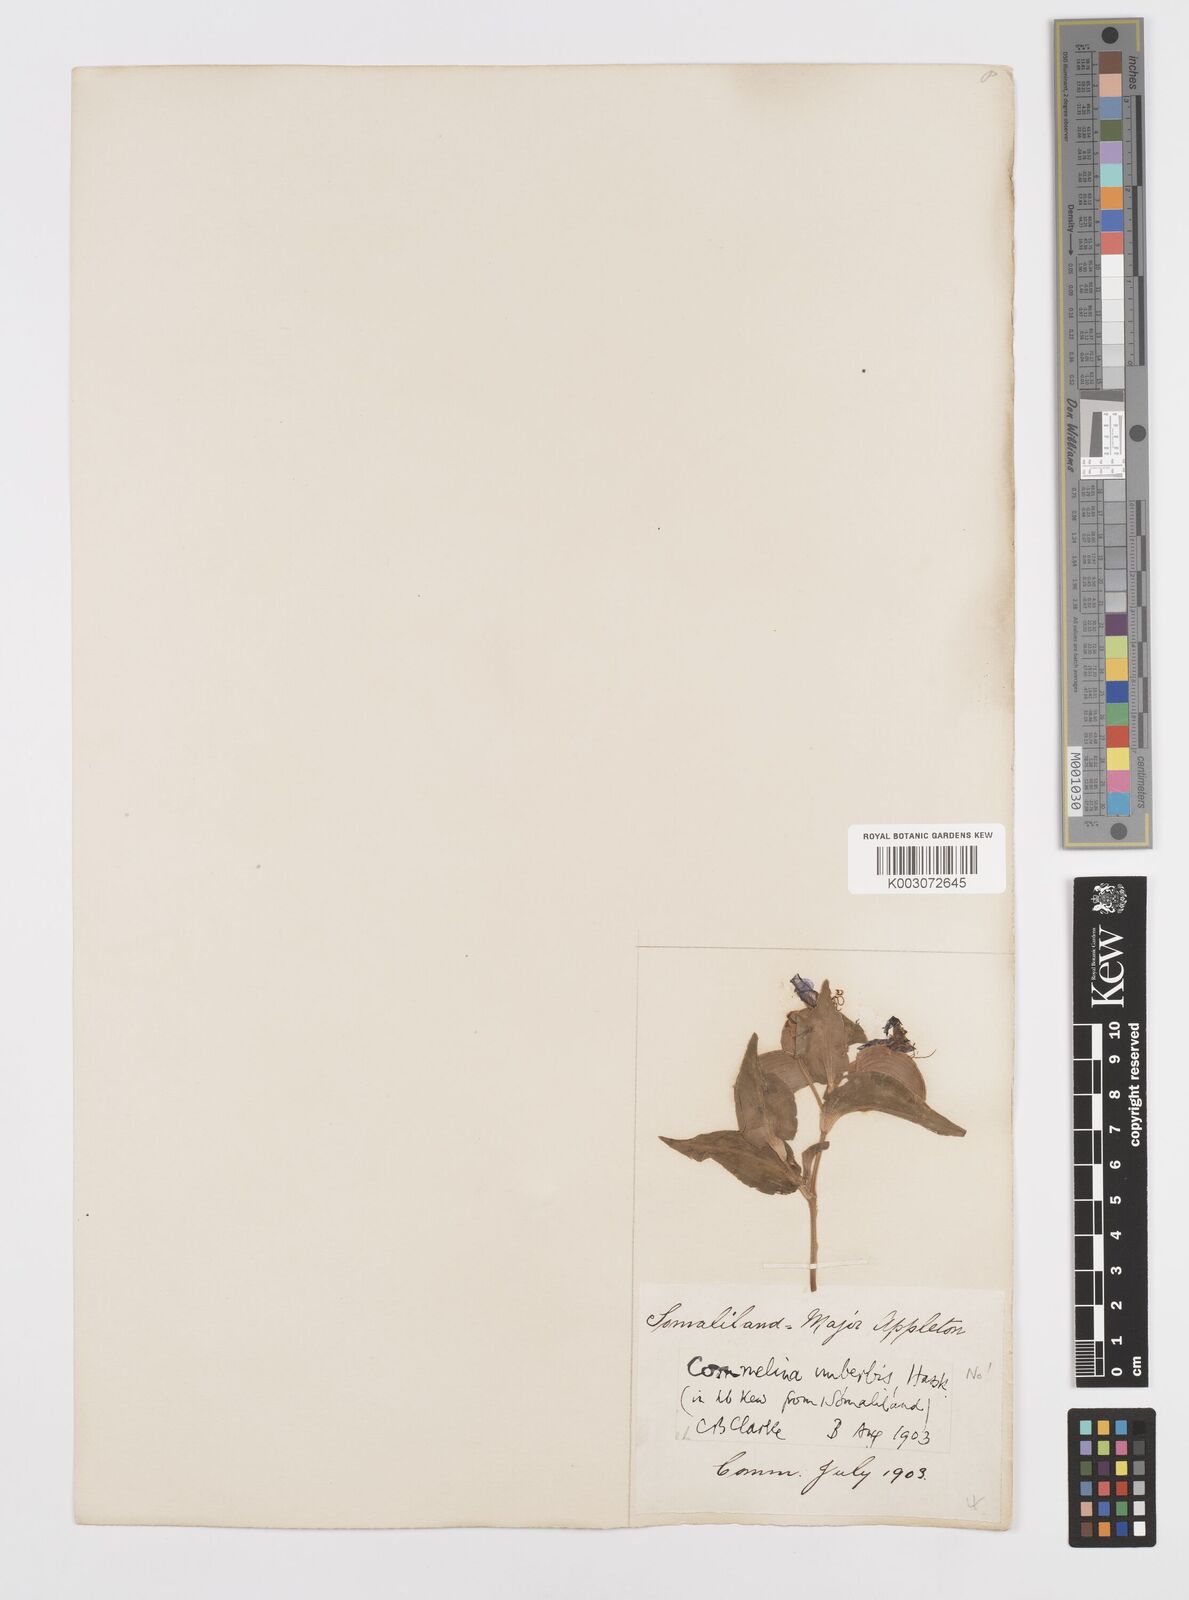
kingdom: Plantae
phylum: Tracheophyta
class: Liliopsida
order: Commelinales
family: Commelinaceae
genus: Commelina
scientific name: Commelina stefaniniana
